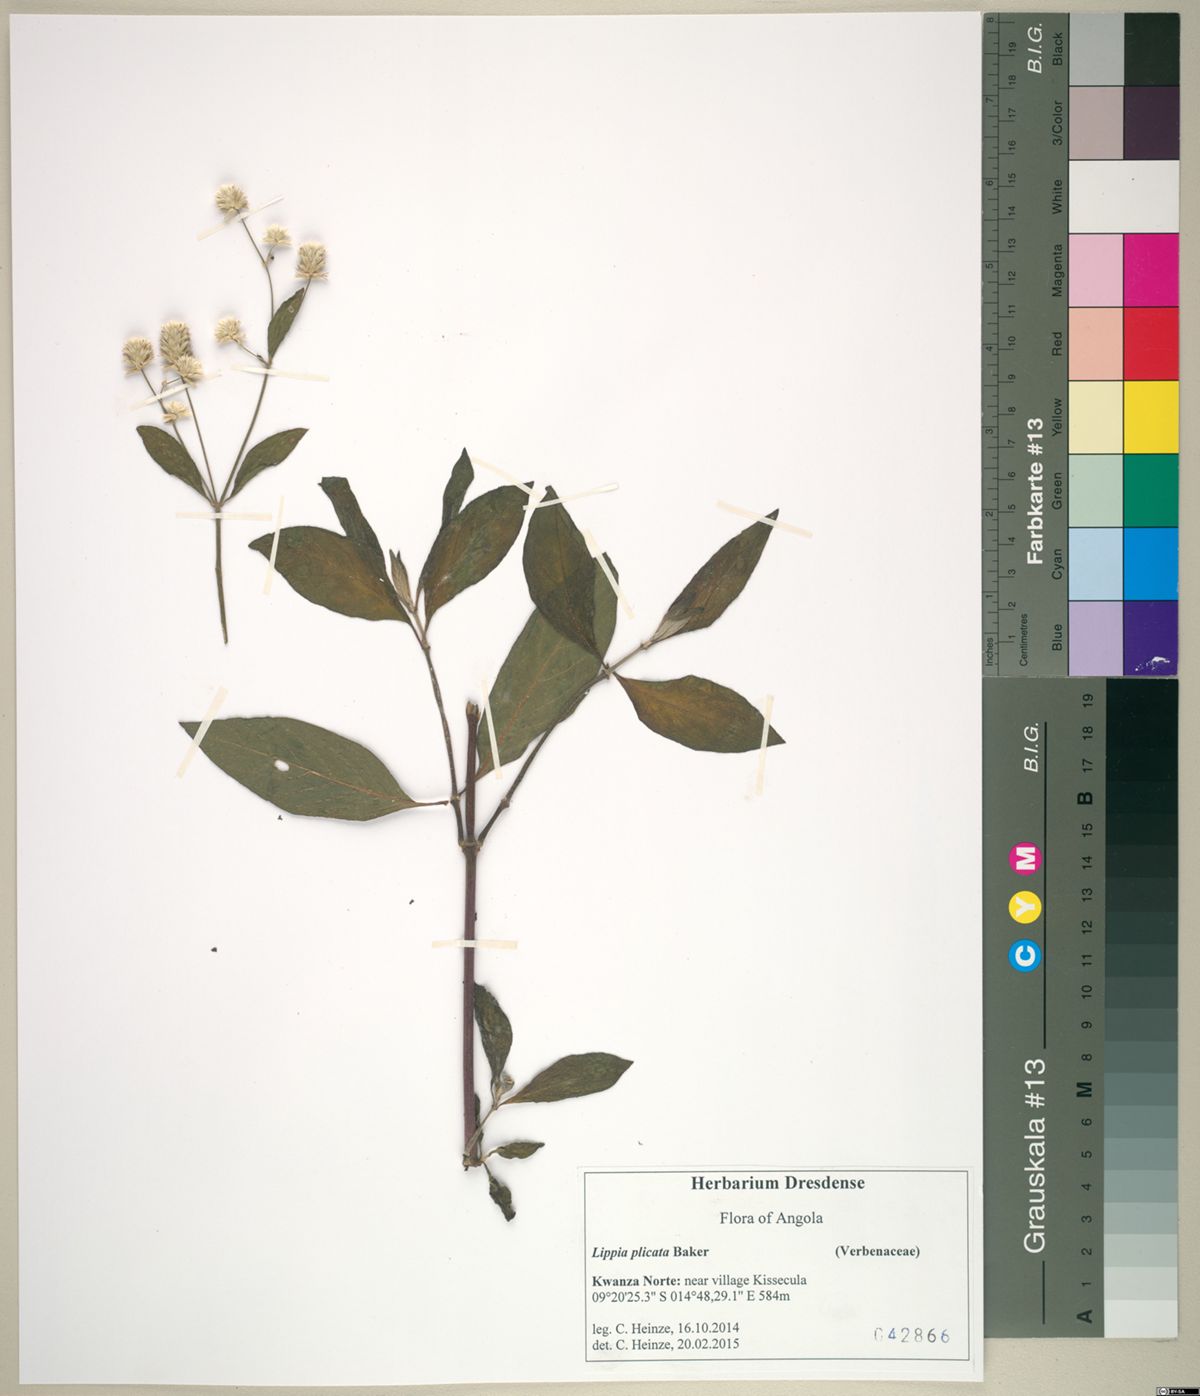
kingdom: Plantae
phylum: Tracheophyta
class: Magnoliopsida
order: Caryophyllales
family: Amaranthaceae
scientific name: Amaranthaceae
